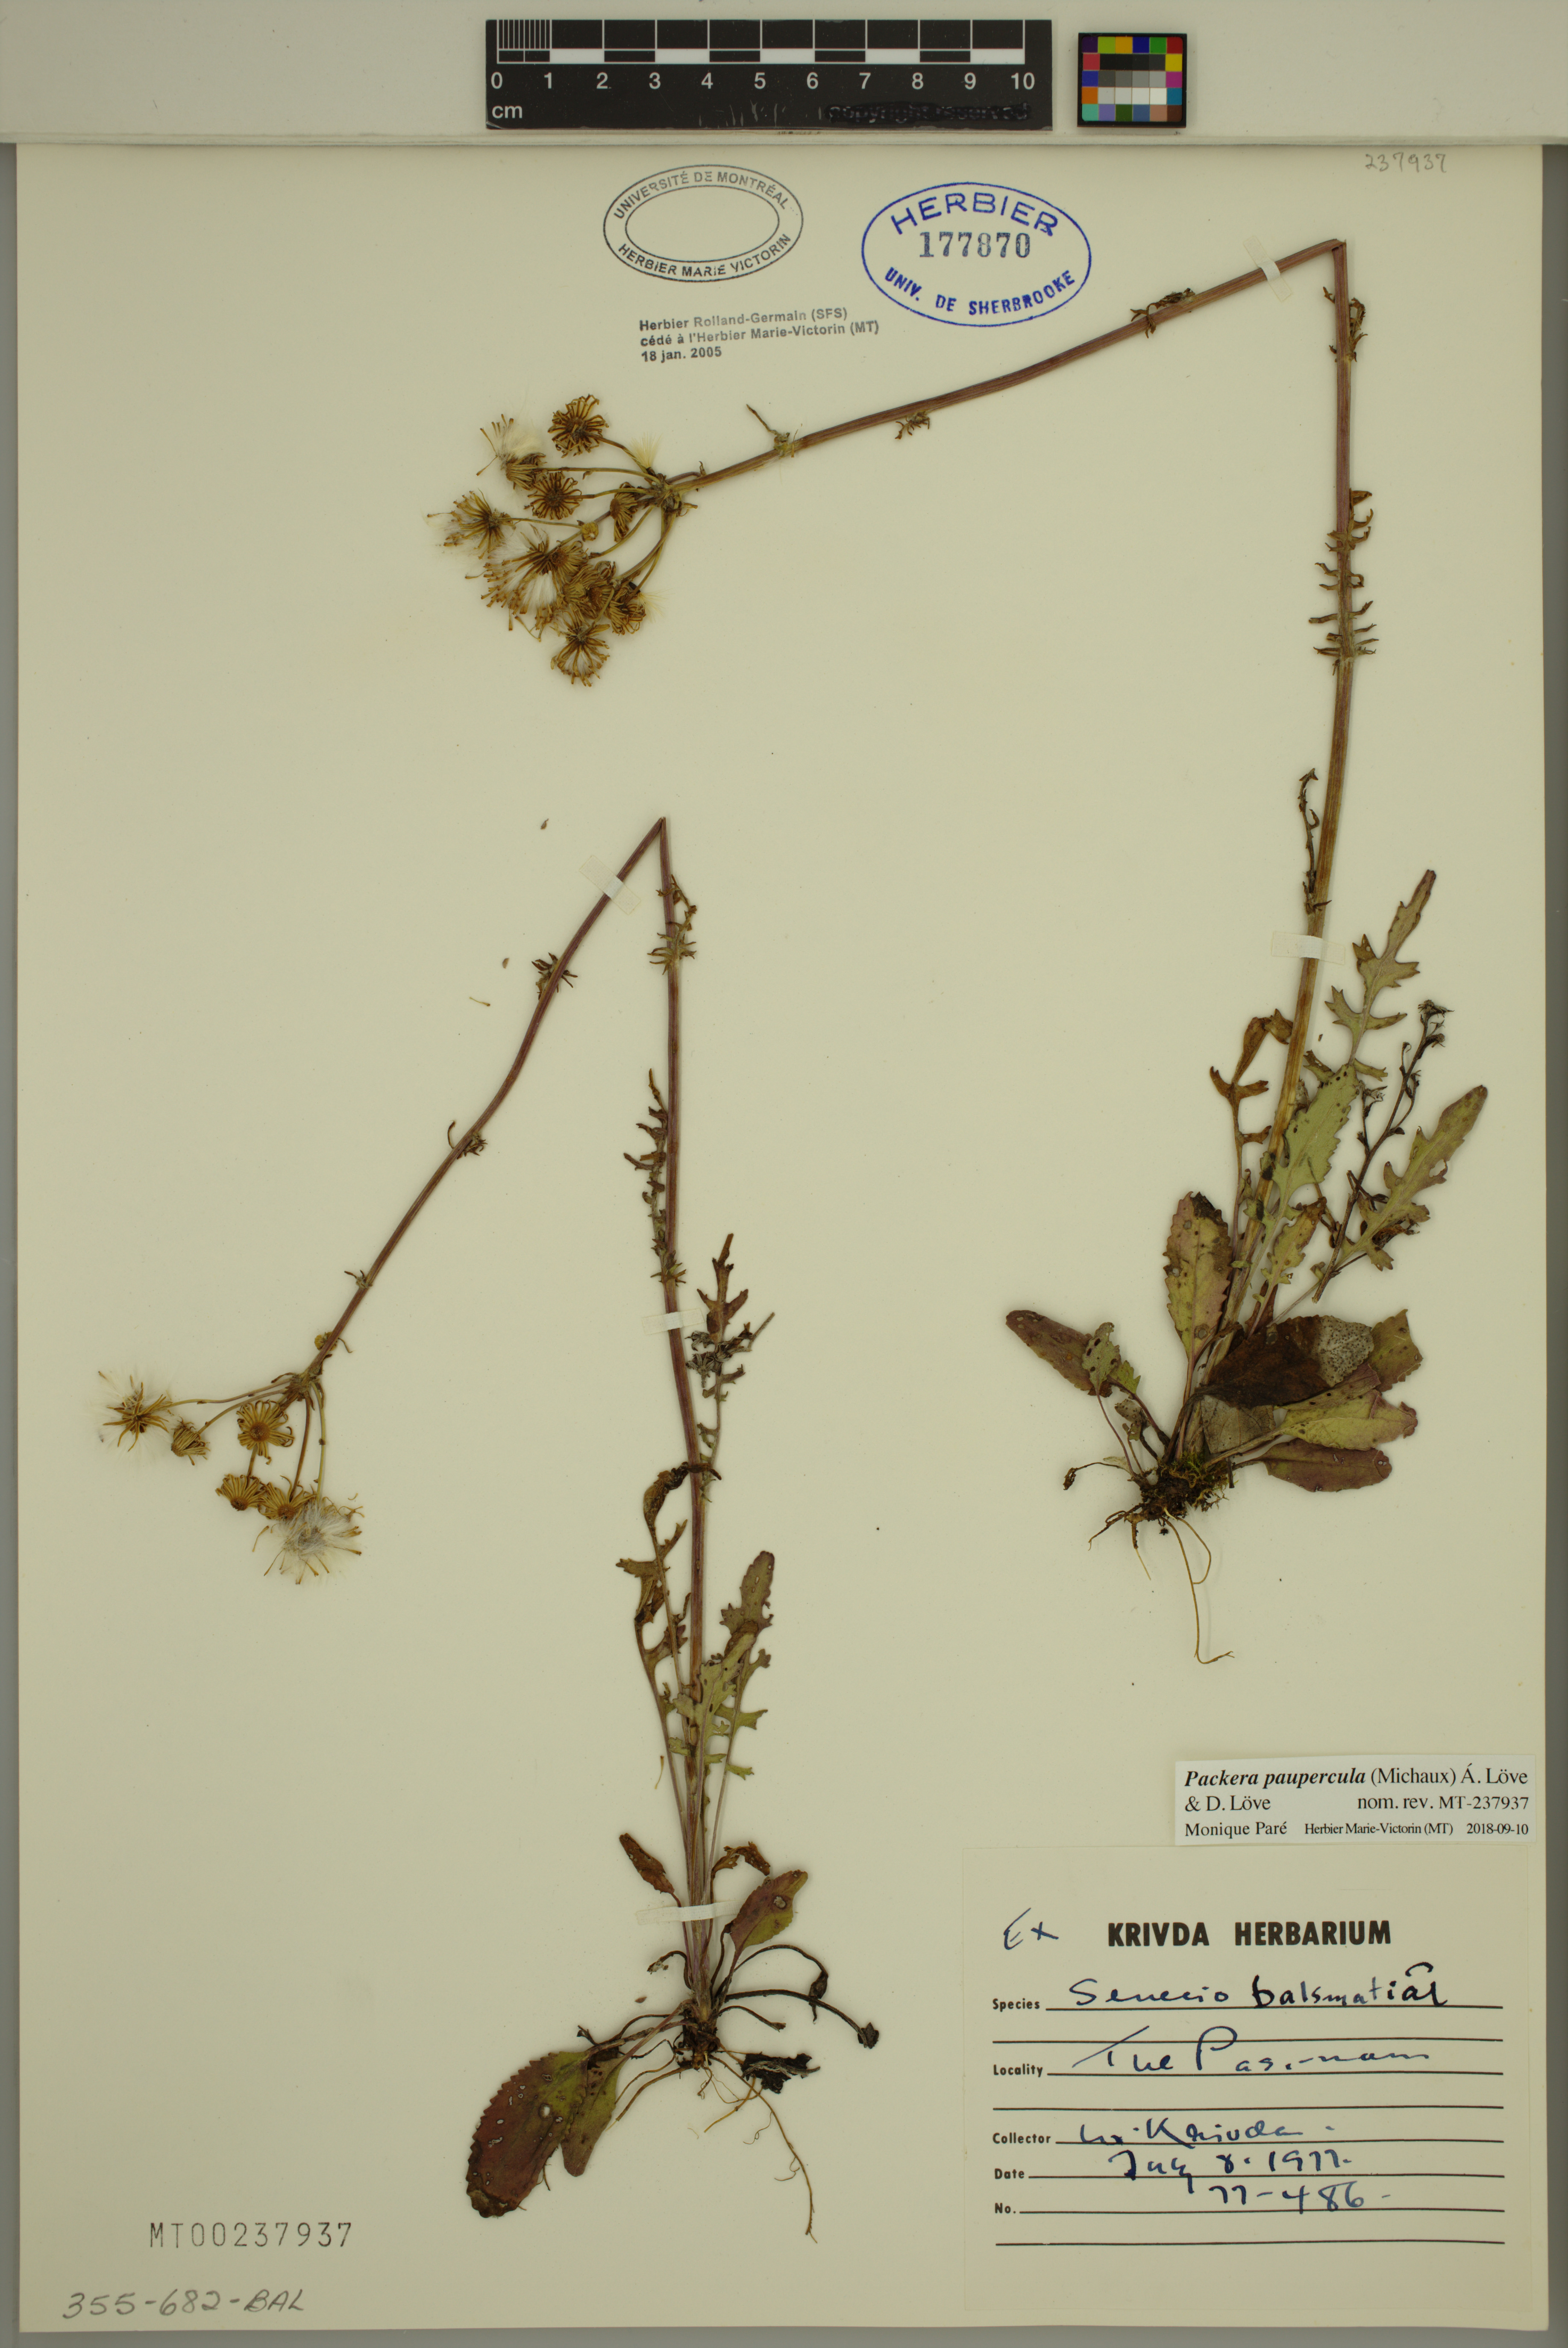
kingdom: Plantae
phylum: Tracheophyta
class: Magnoliopsida
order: Asterales
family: Asteraceae
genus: Packera
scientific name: Packera paupercula
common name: Balsam groundsel
